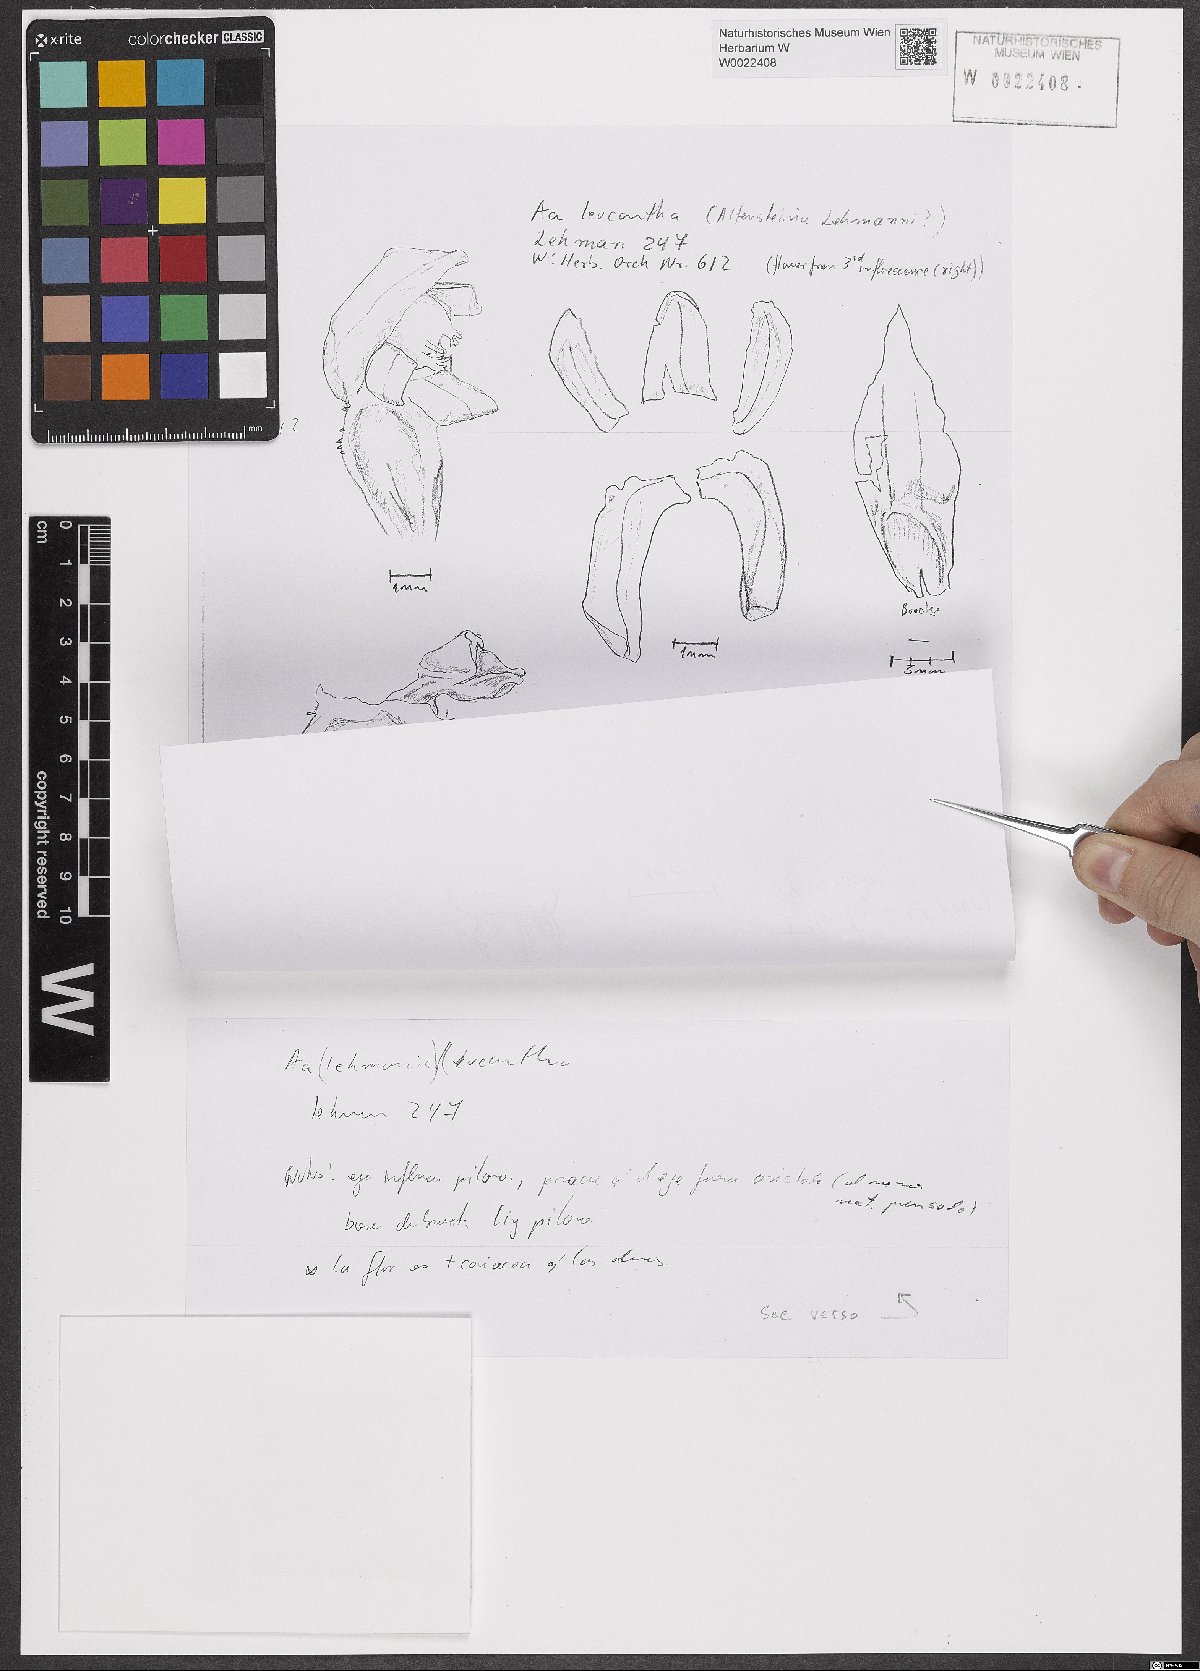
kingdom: Plantae
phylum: Tracheophyta
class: Liliopsida
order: Asparagales
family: Orchidaceae
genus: Aa
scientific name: Aa leucantha
